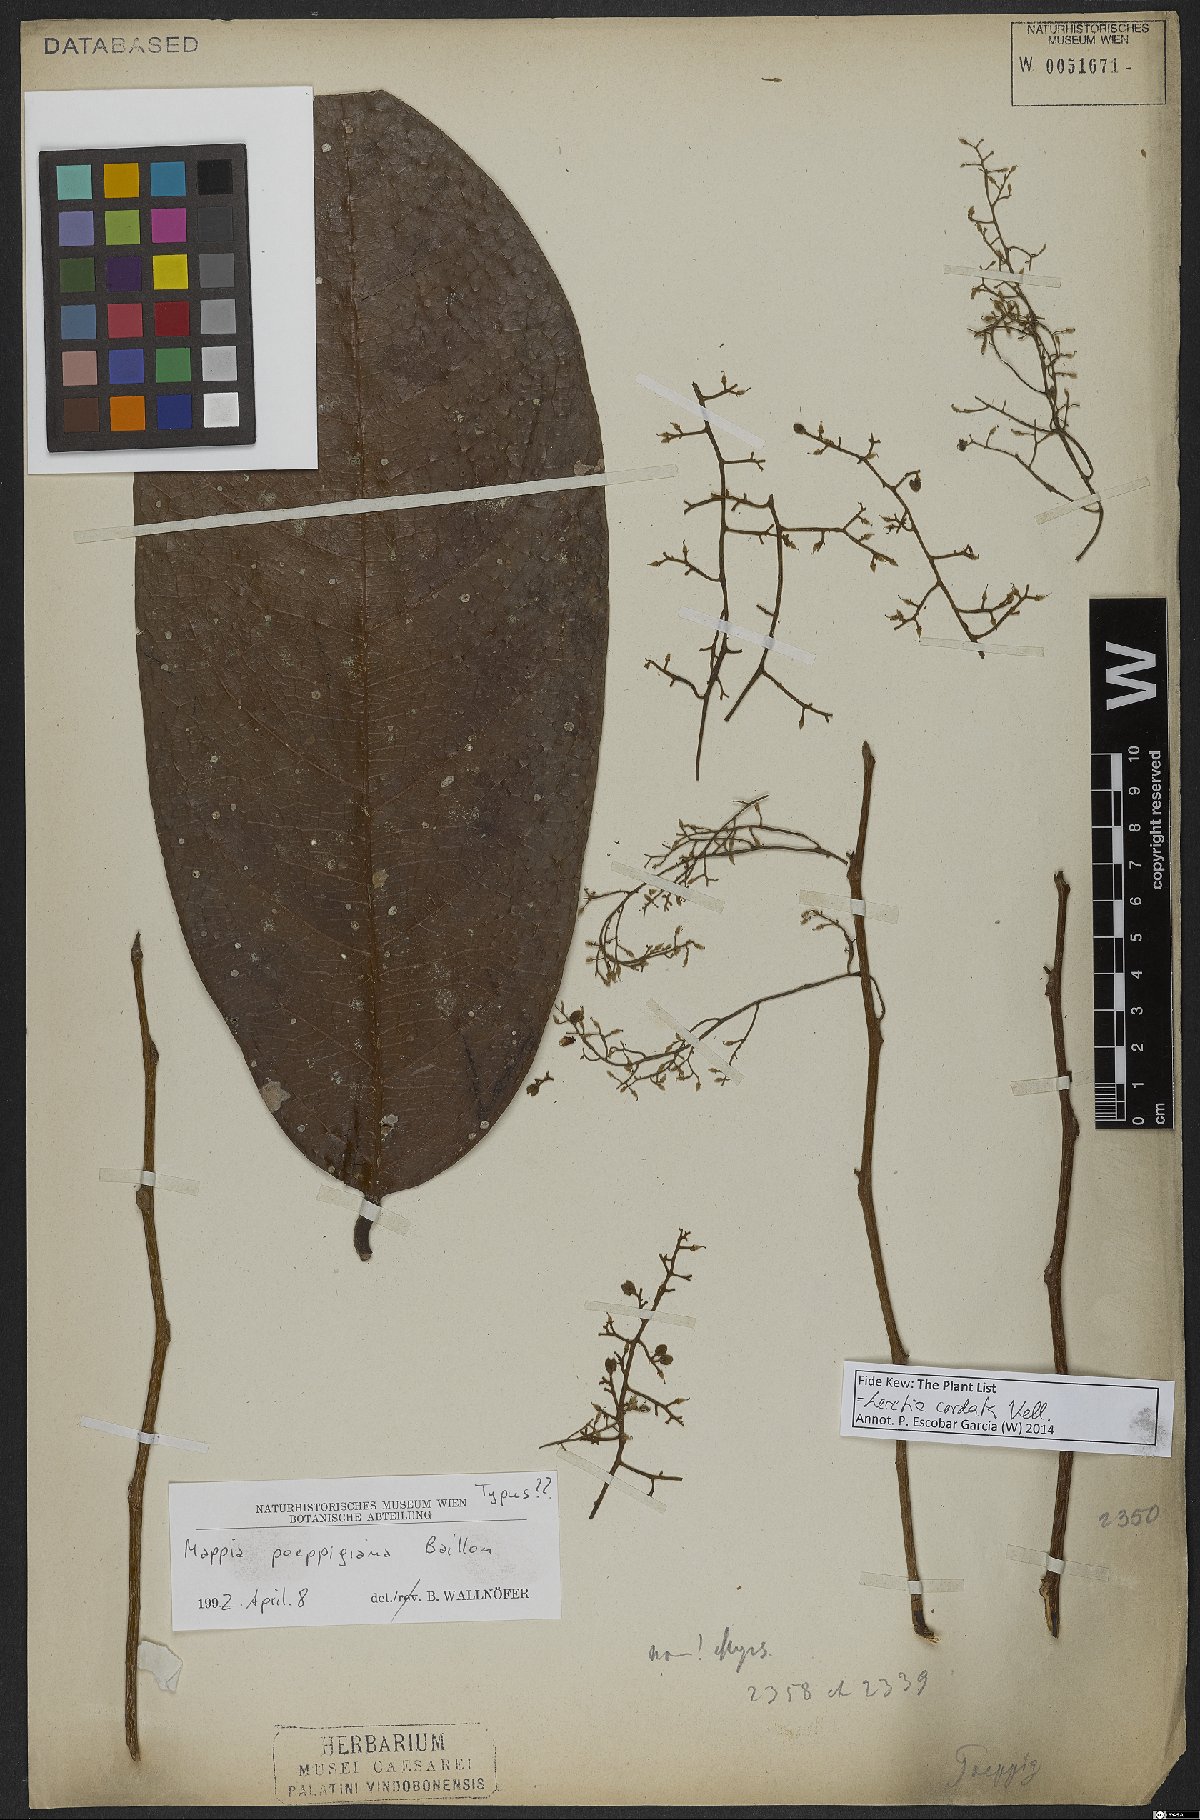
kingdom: Plantae
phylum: Tracheophyta
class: Magnoliopsida
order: Icacinales
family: Icacinaceae
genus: Leretia
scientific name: Leretia cordata
